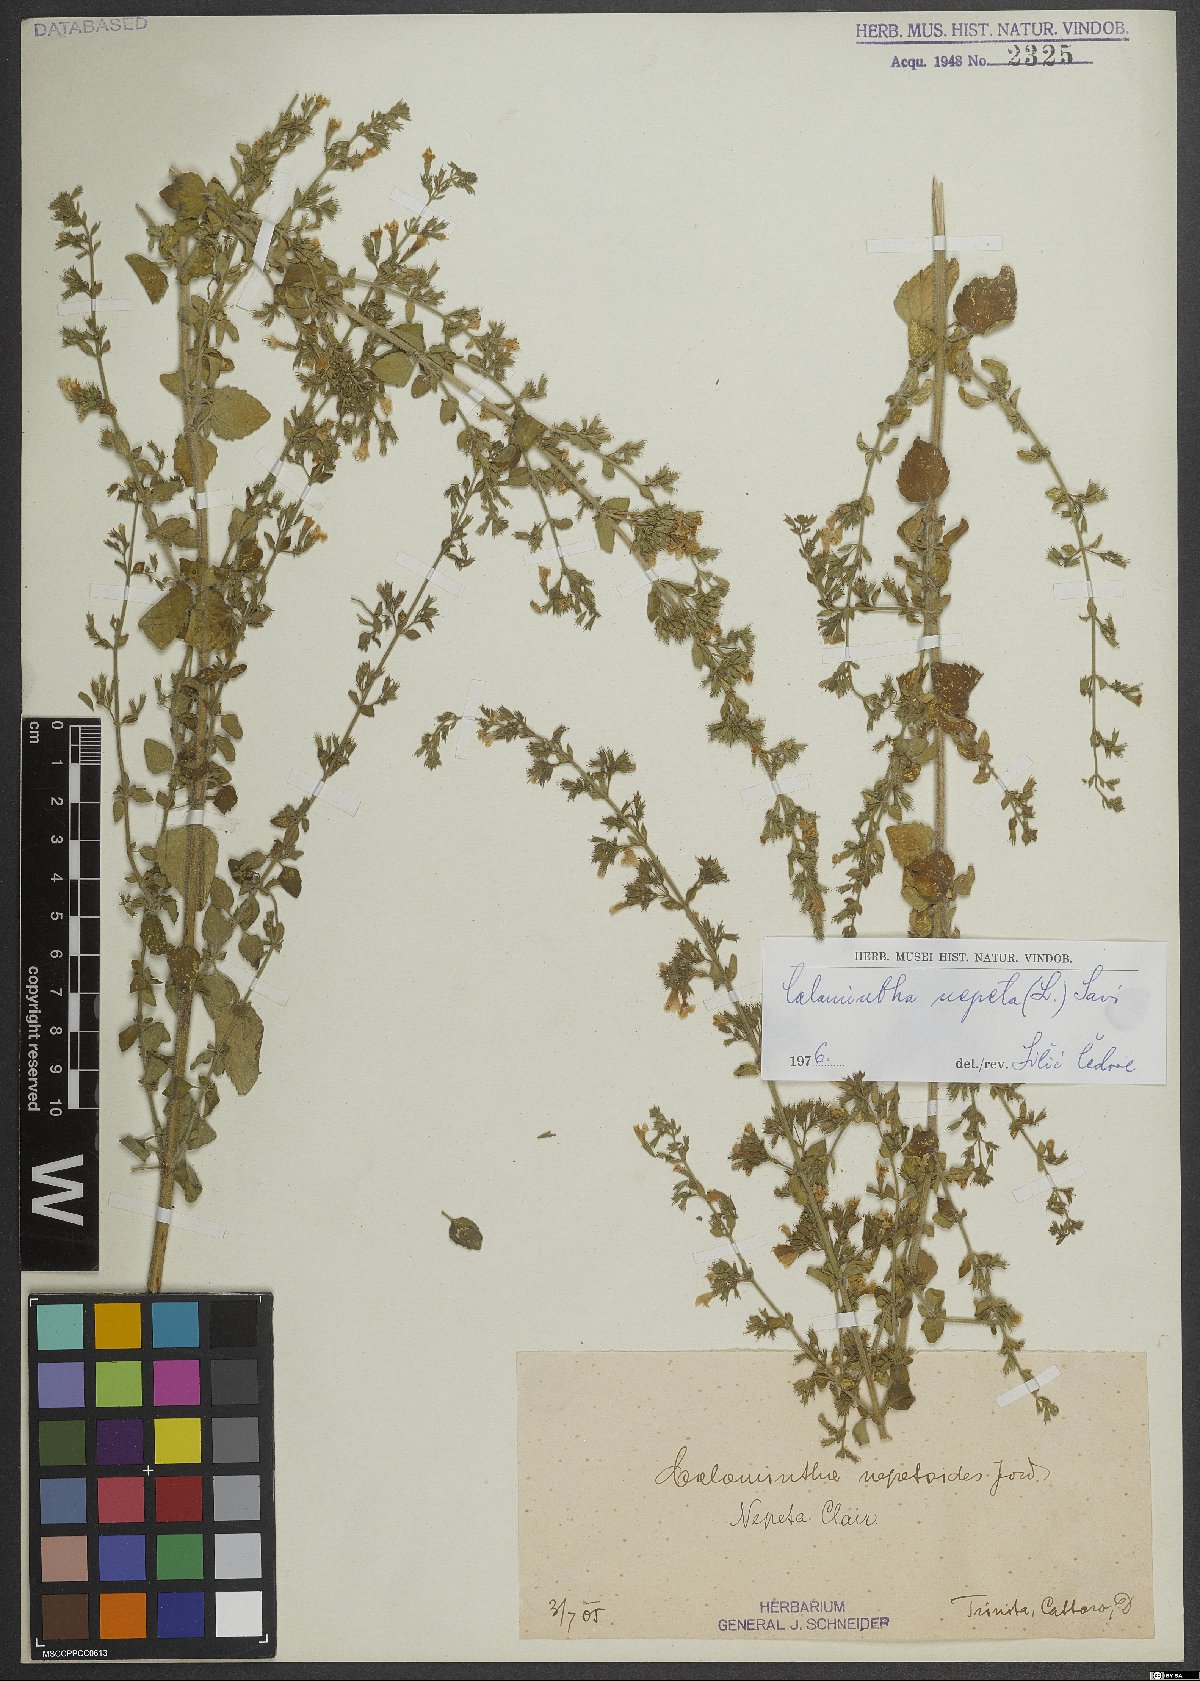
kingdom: Plantae
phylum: Tracheophyta
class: Magnoliopsida
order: Lamiales
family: Lamiaceae
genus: Clinopodium
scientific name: Clinopodium nepeta
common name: Lesser calamint
